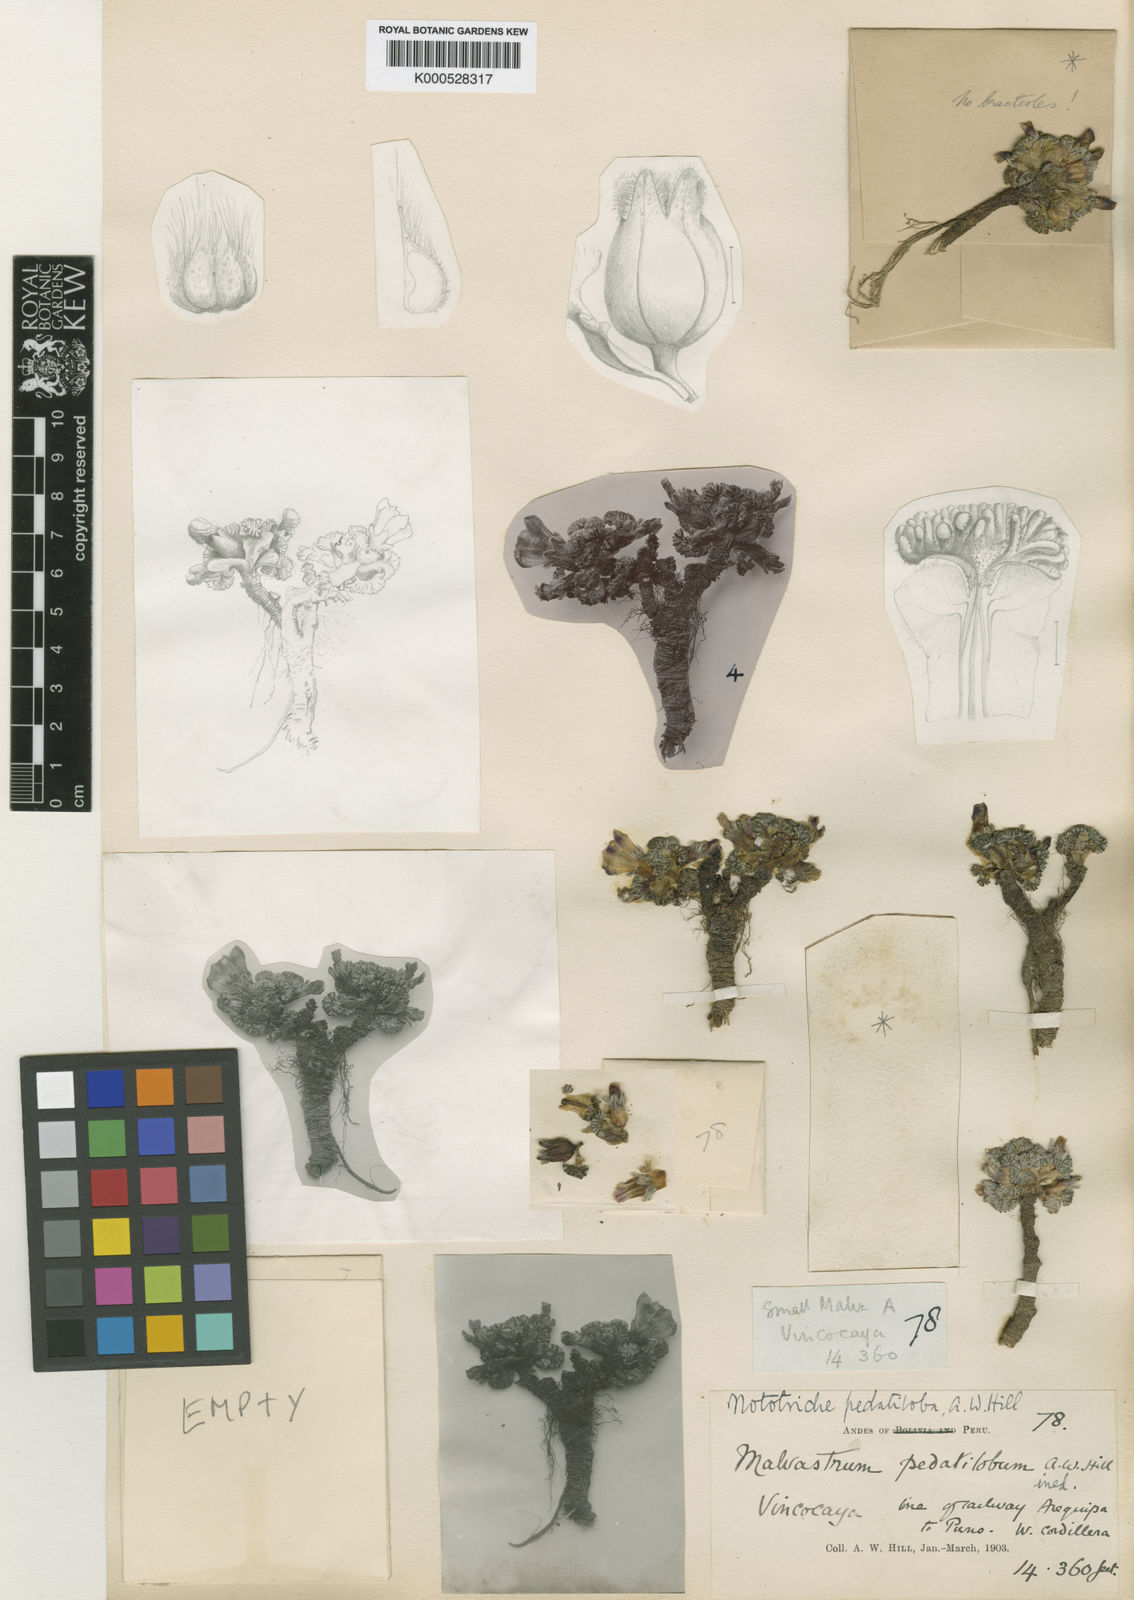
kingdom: Plantae
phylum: Tracheophyta
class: Magnoliopsida
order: Malvales
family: Malvaceae
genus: Nototriche
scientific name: Nototriche pedatiloba
